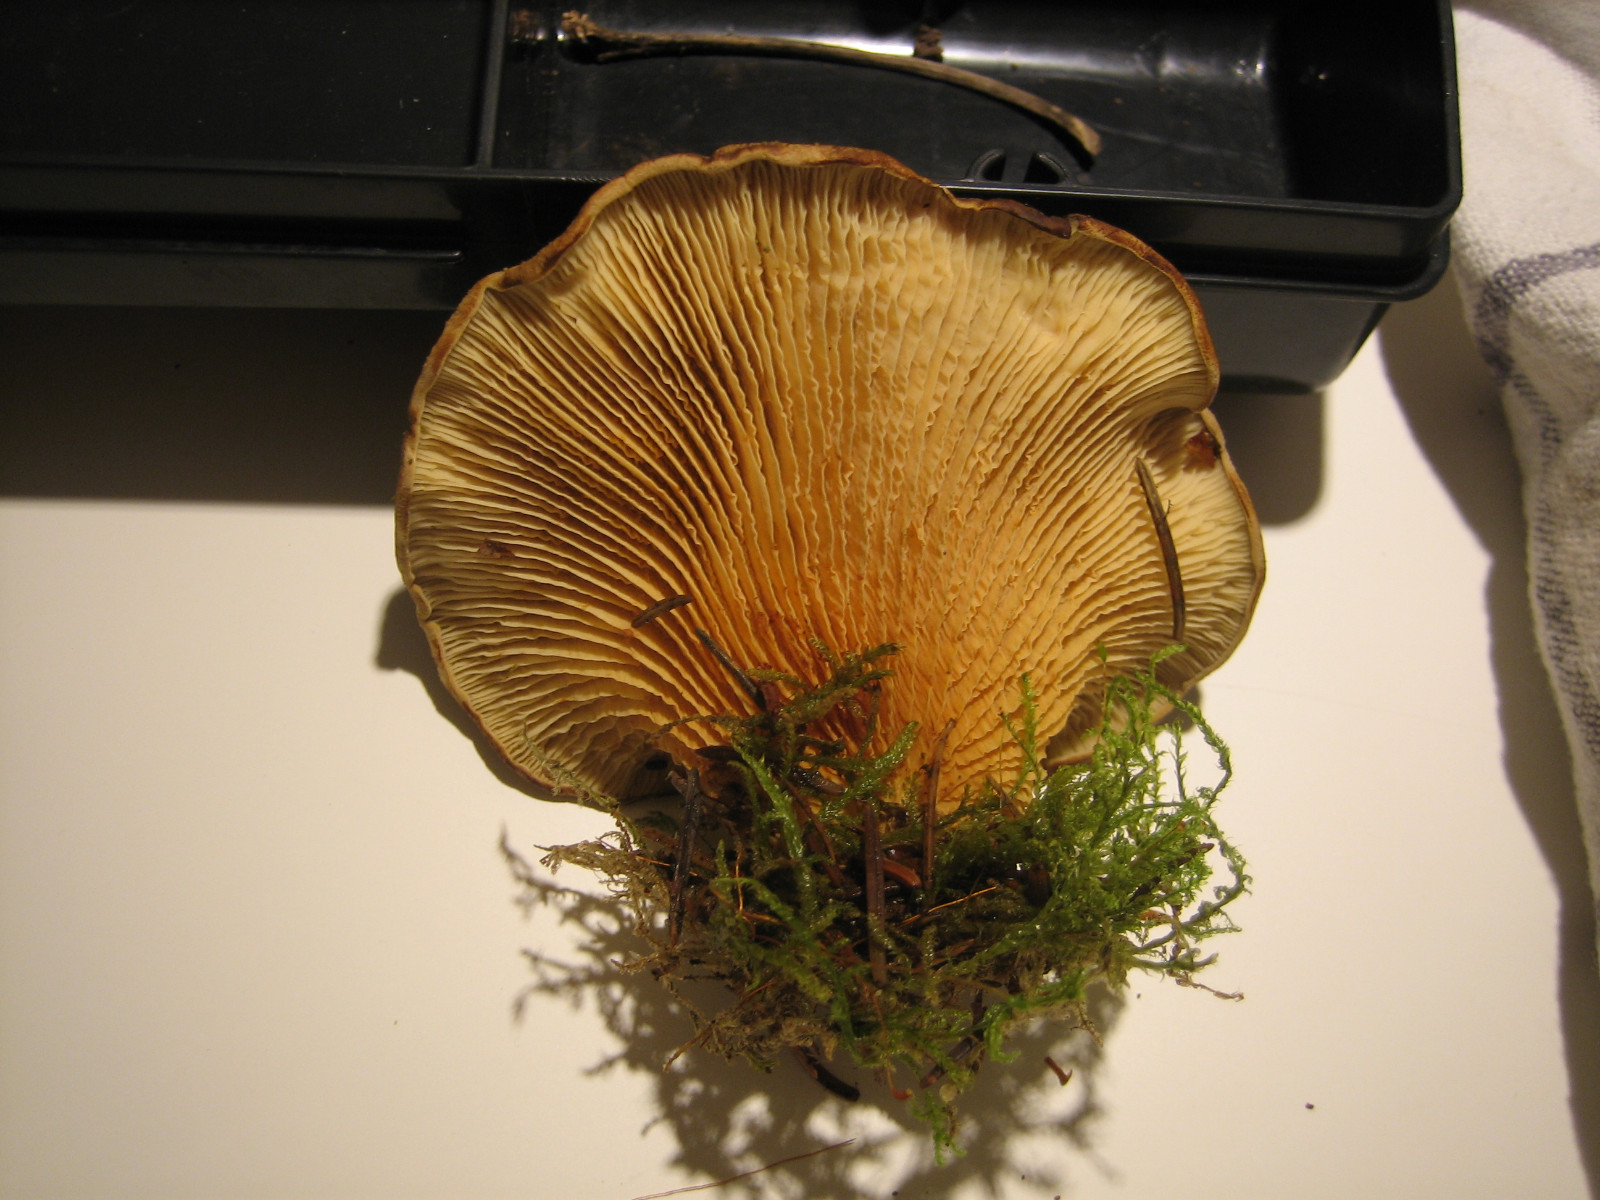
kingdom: Fungi
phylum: Basidiomycota
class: Agaricomycetes
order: Boletales
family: Tapinellaceae
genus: Tapinella
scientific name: Tapinella panuoides
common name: tømmer-viftesvamp
